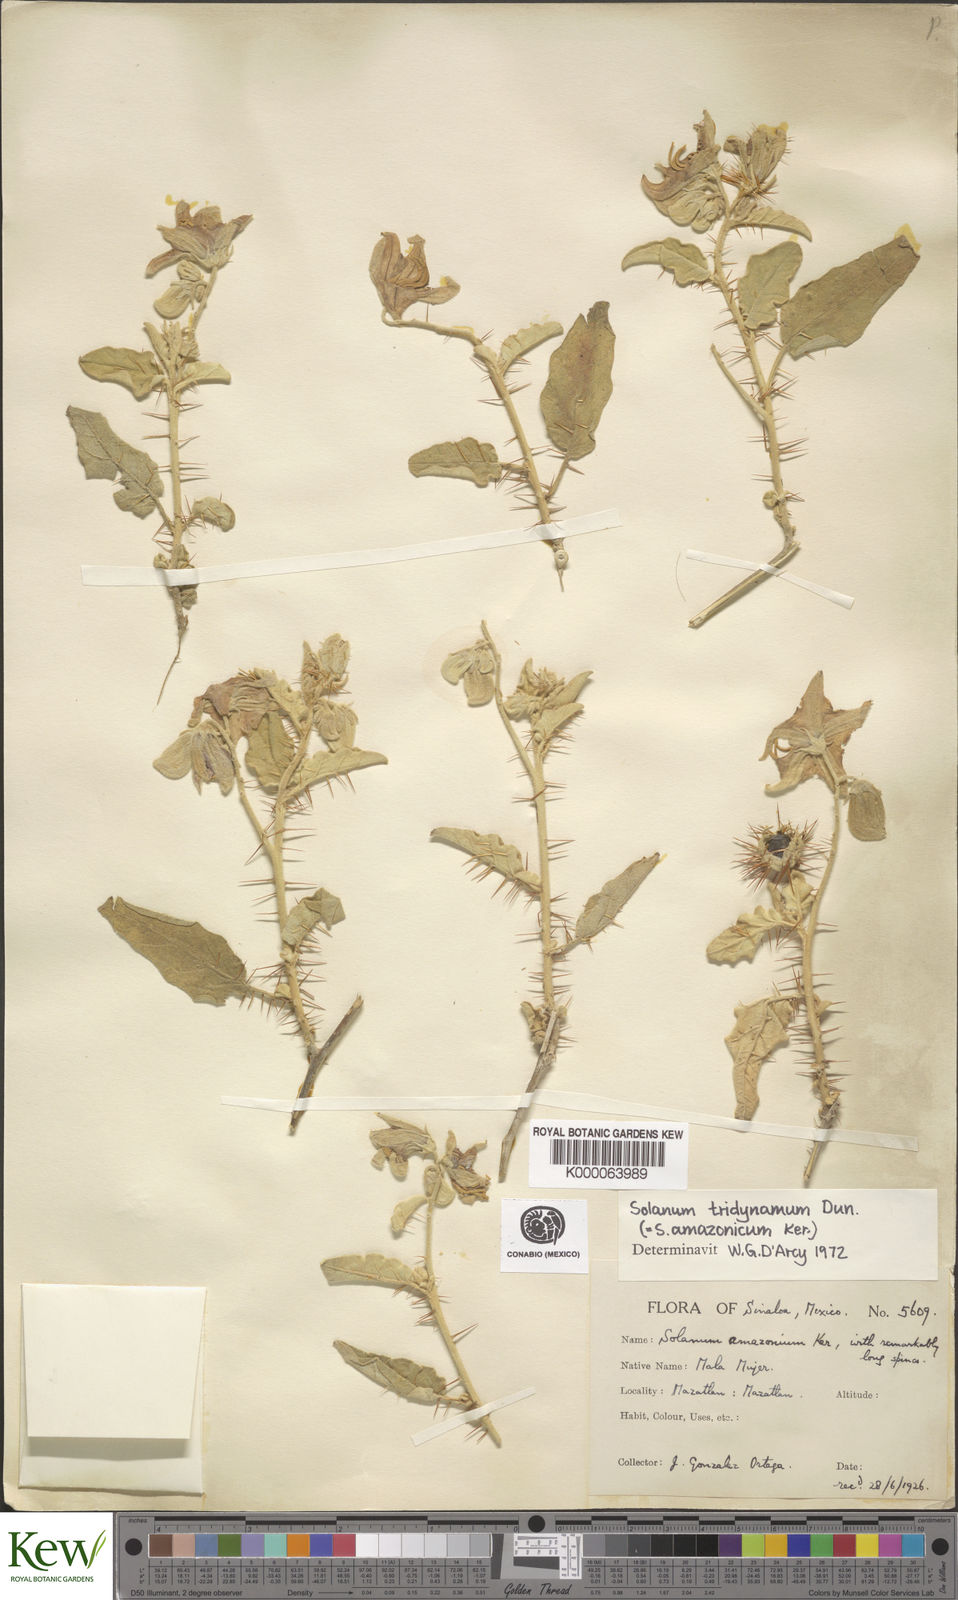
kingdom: Plantae
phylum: Tracheophyta
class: Magnoliopsida
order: Solanales
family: Solanaceae
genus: Solanum
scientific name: Solanum houstonii
